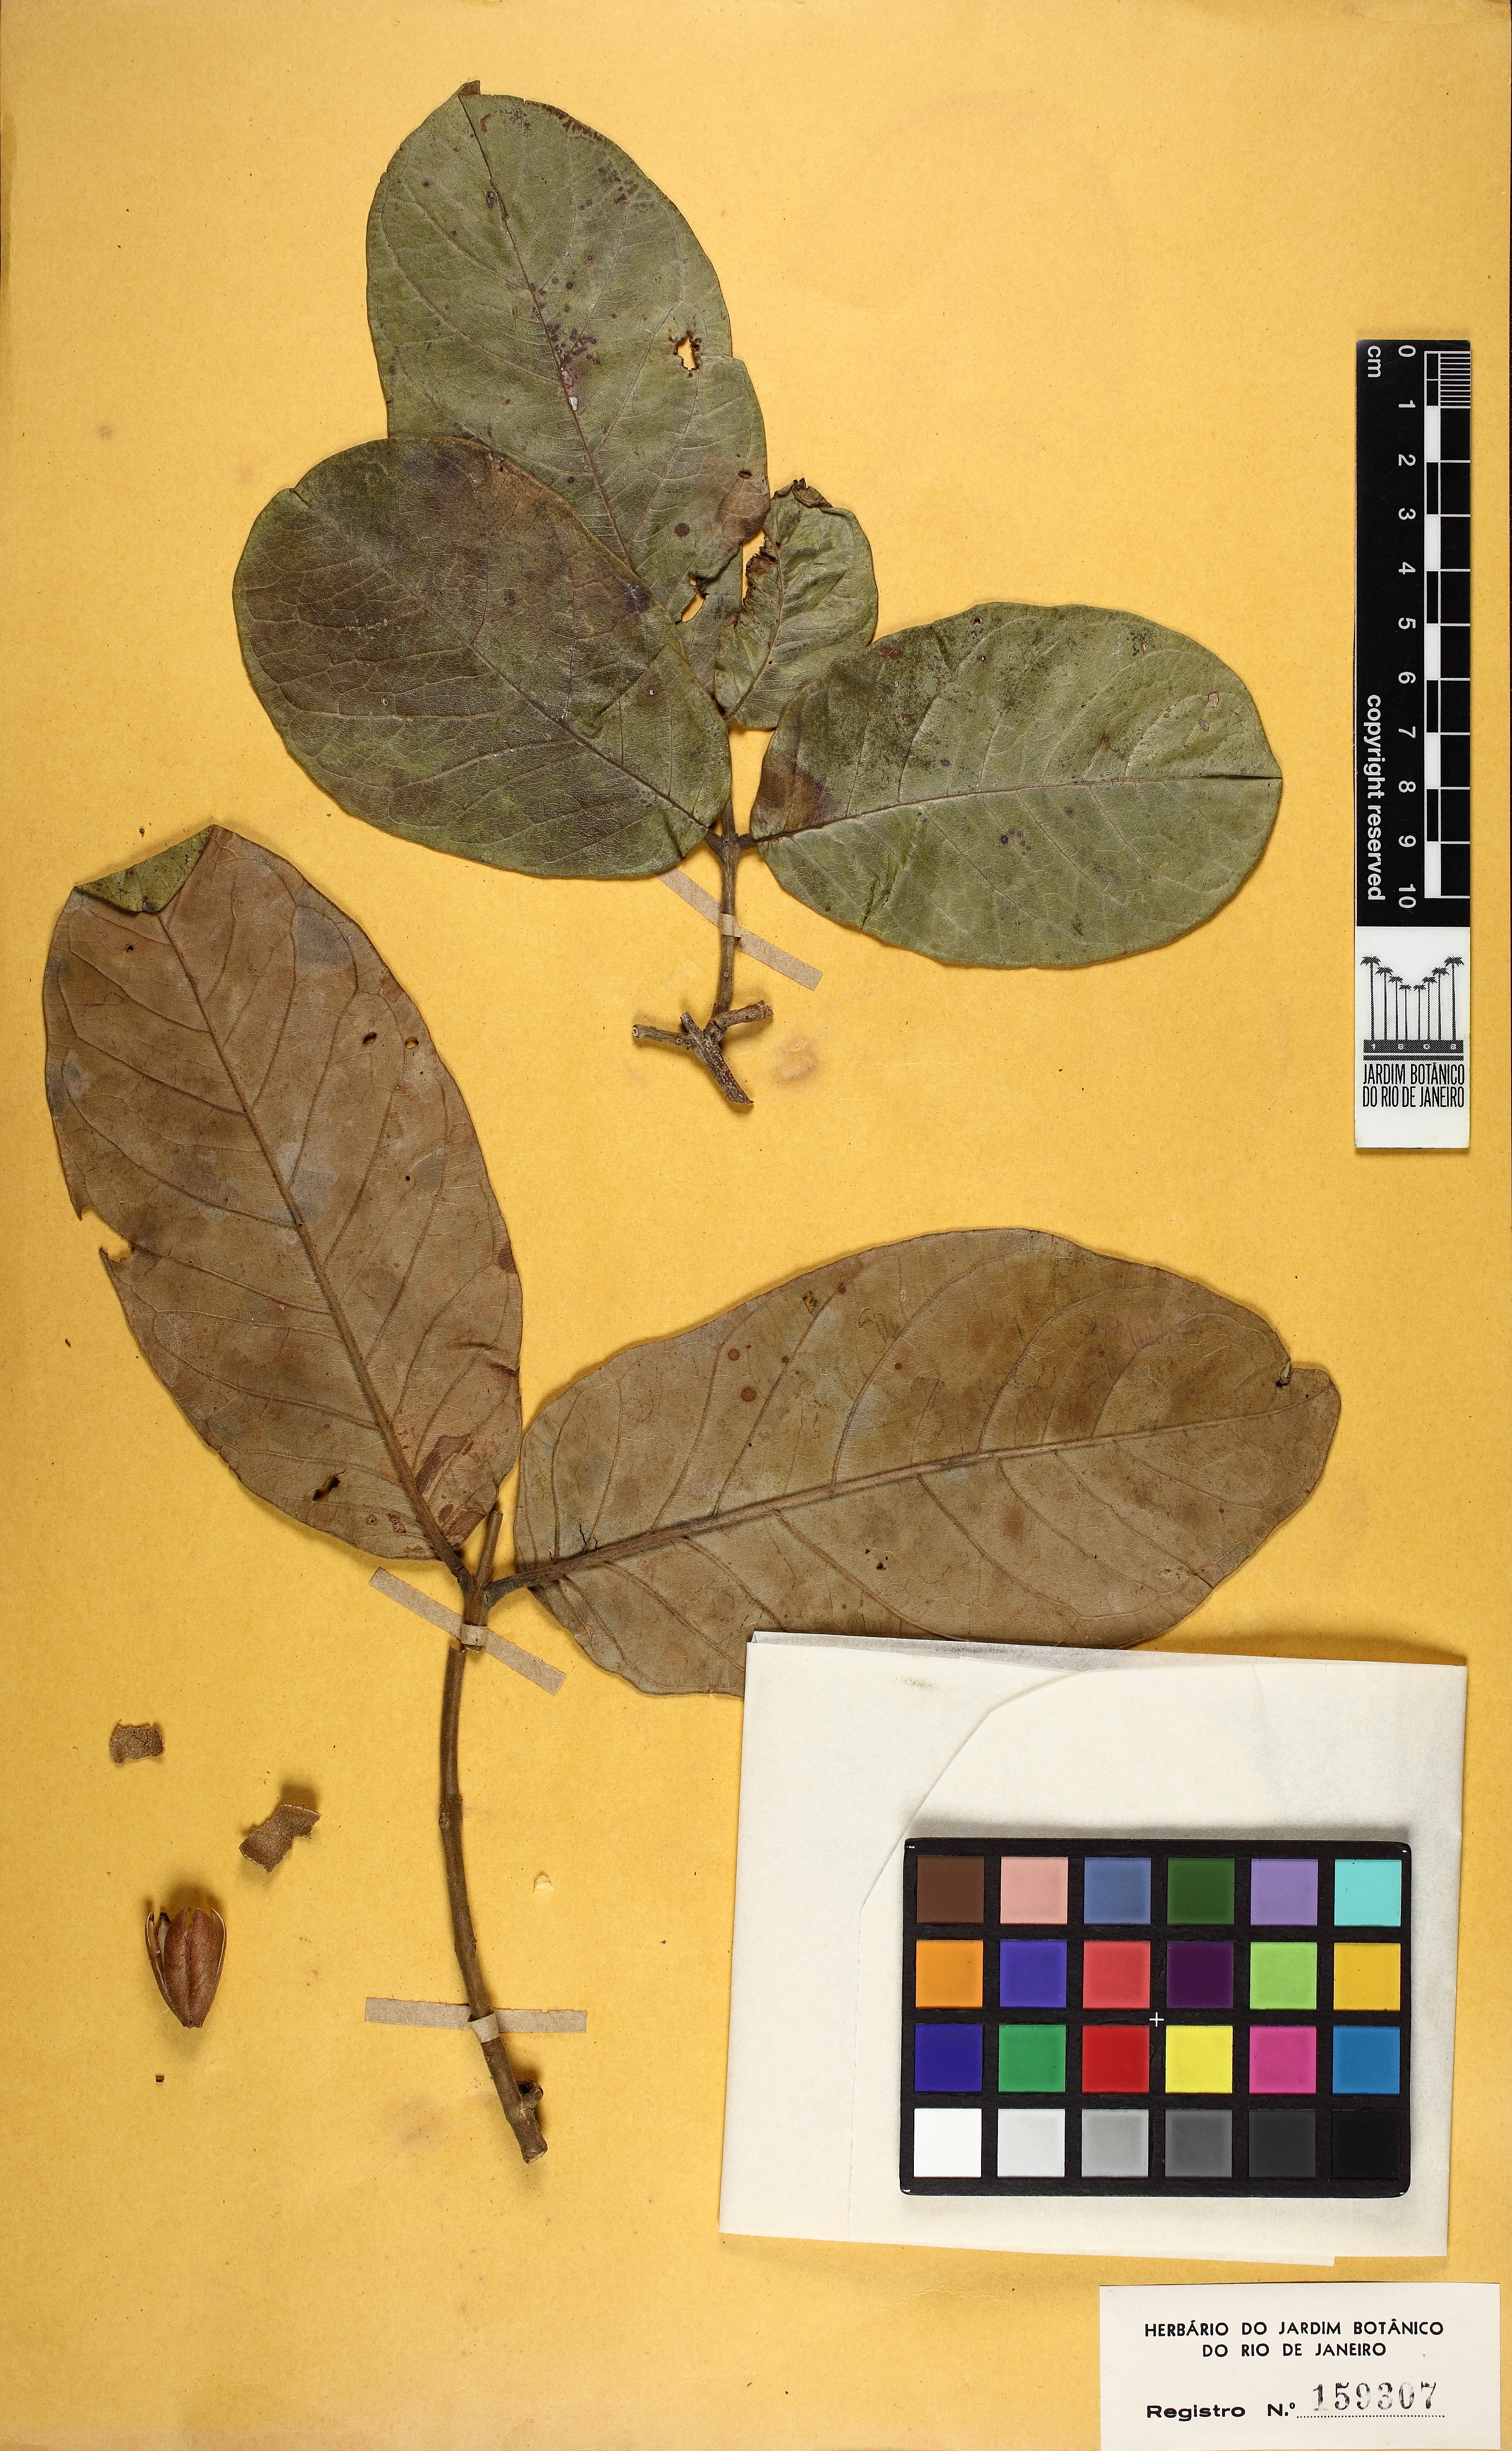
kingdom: Plantae
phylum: Tracheophyta
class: Magnoliopsida
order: Myrtales
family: Vochysiaceae
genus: Callisthene
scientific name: Callisthene fasciculata
